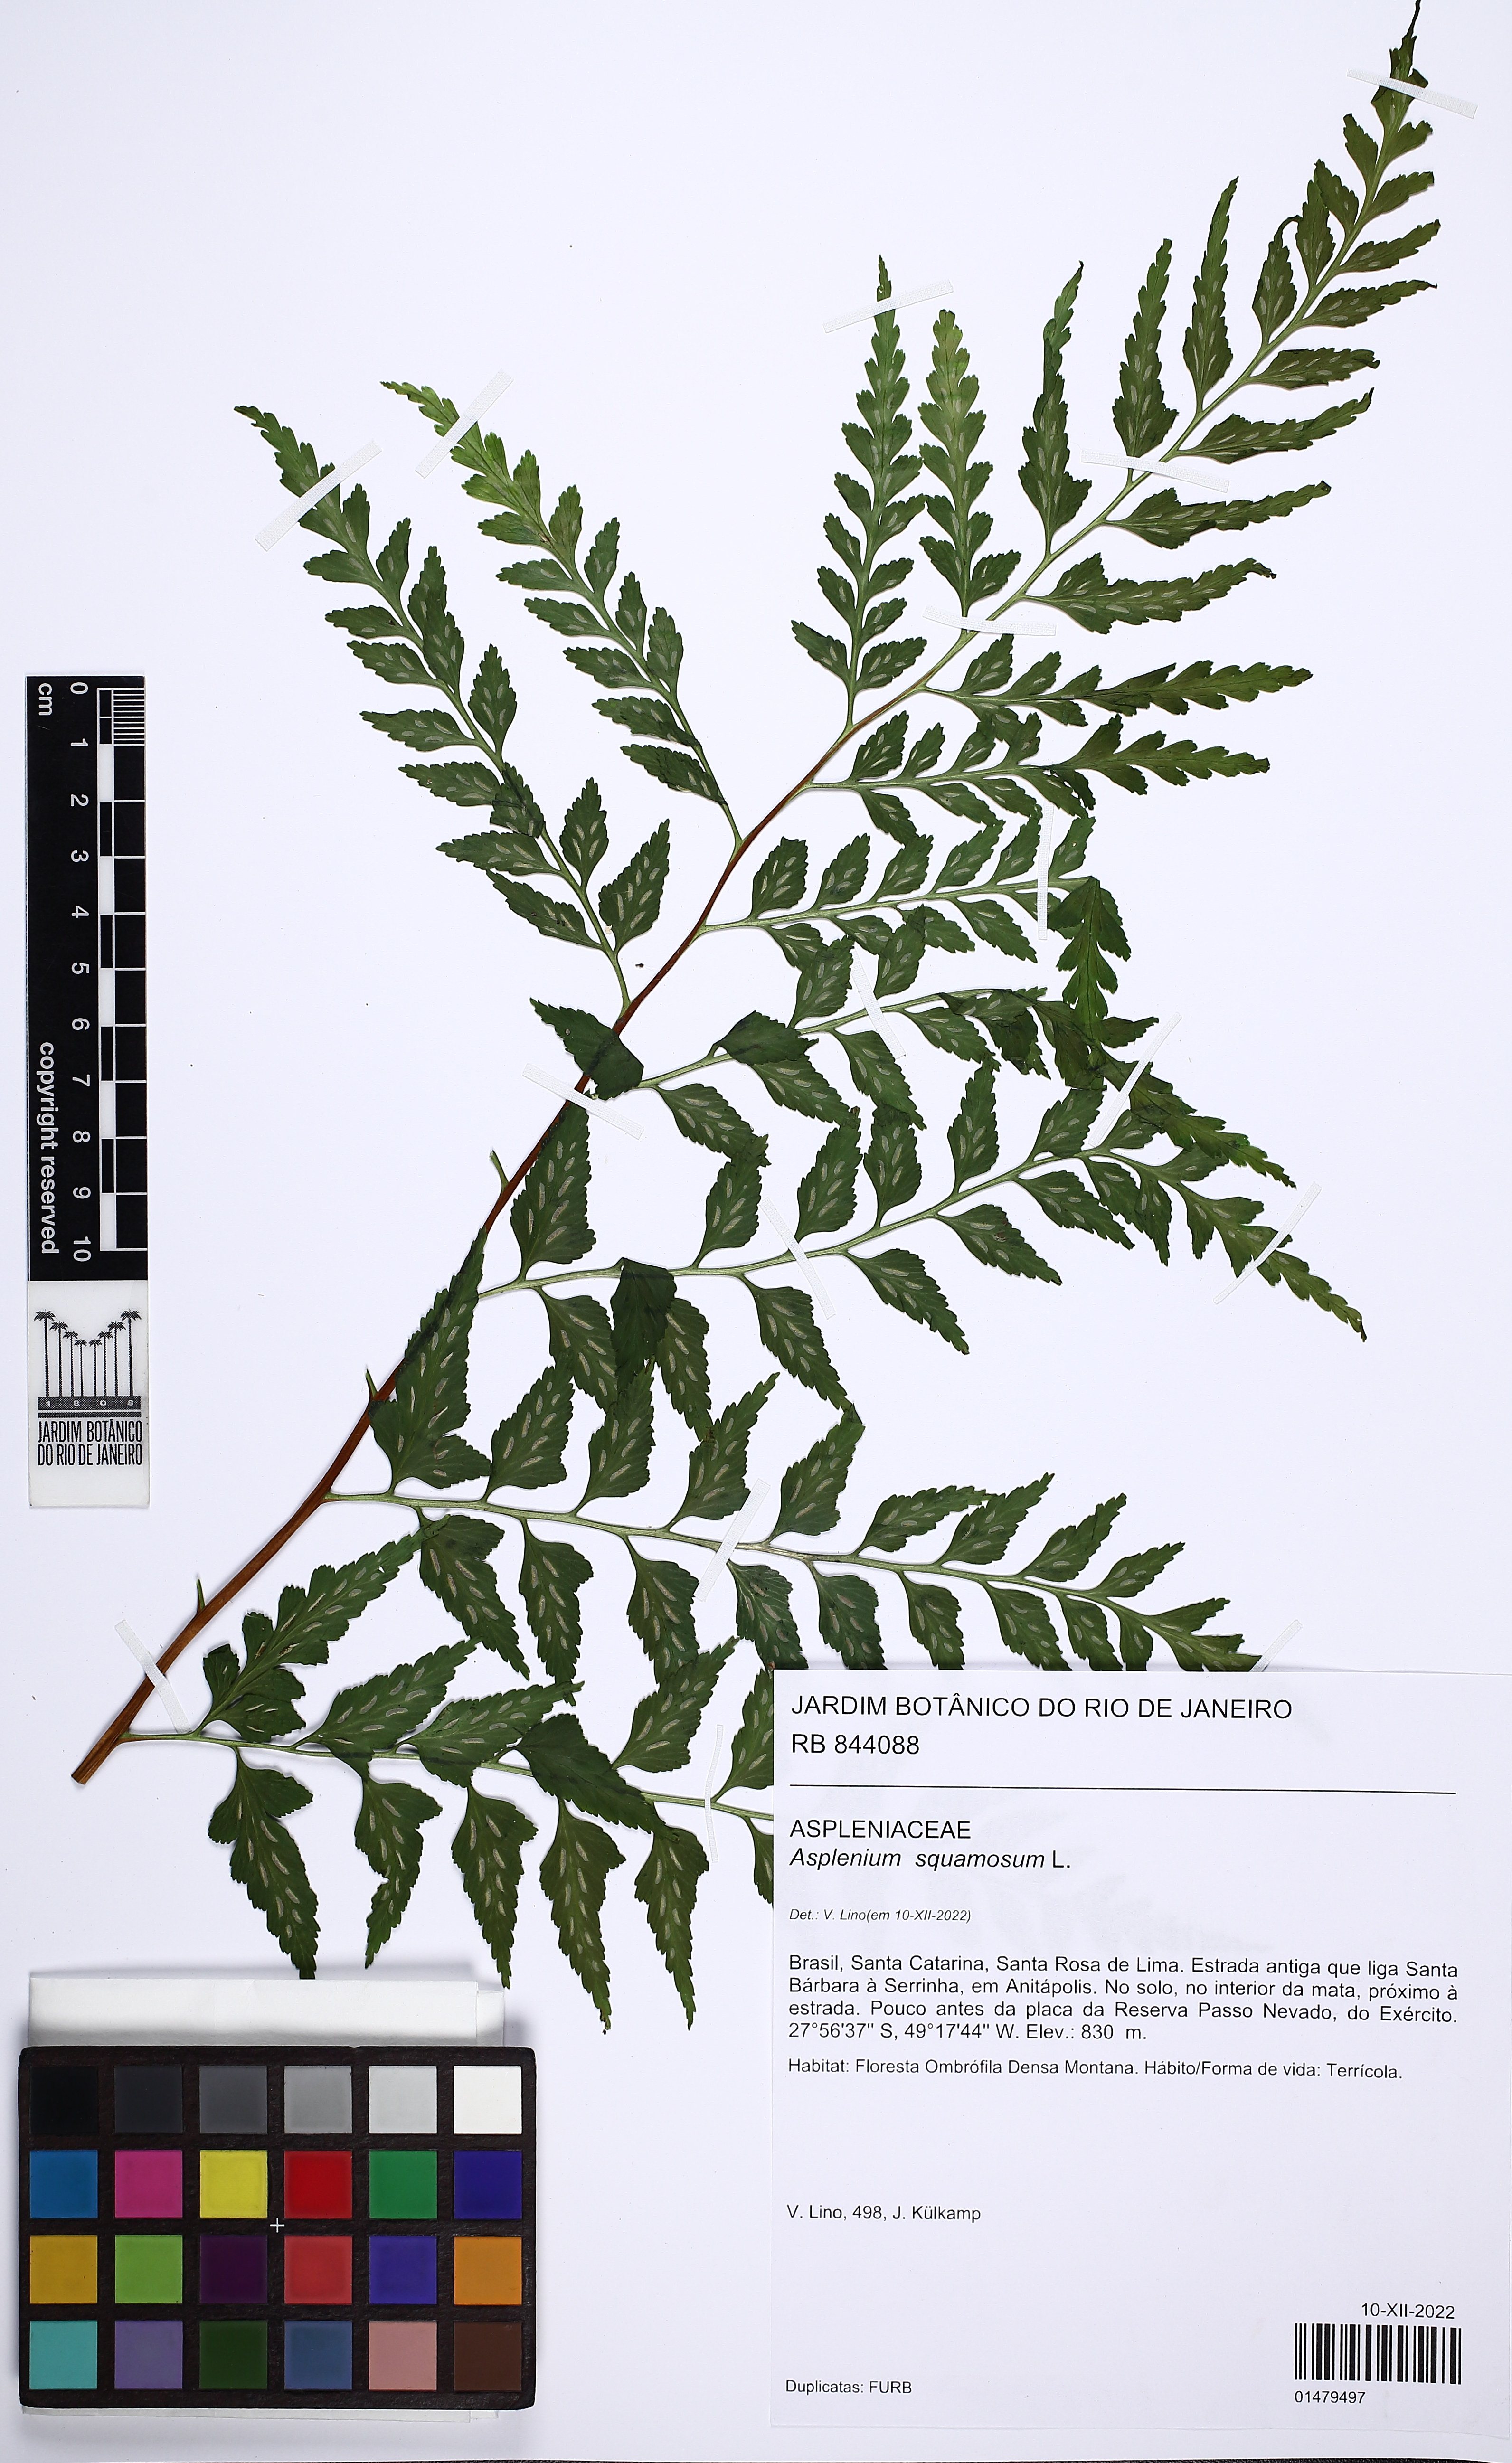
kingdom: Plantae
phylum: Tracheophyta
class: Polypodiopsida
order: Polypodiales
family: Aspleniaceae
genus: Asplenium
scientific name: Asplenium squamosum
